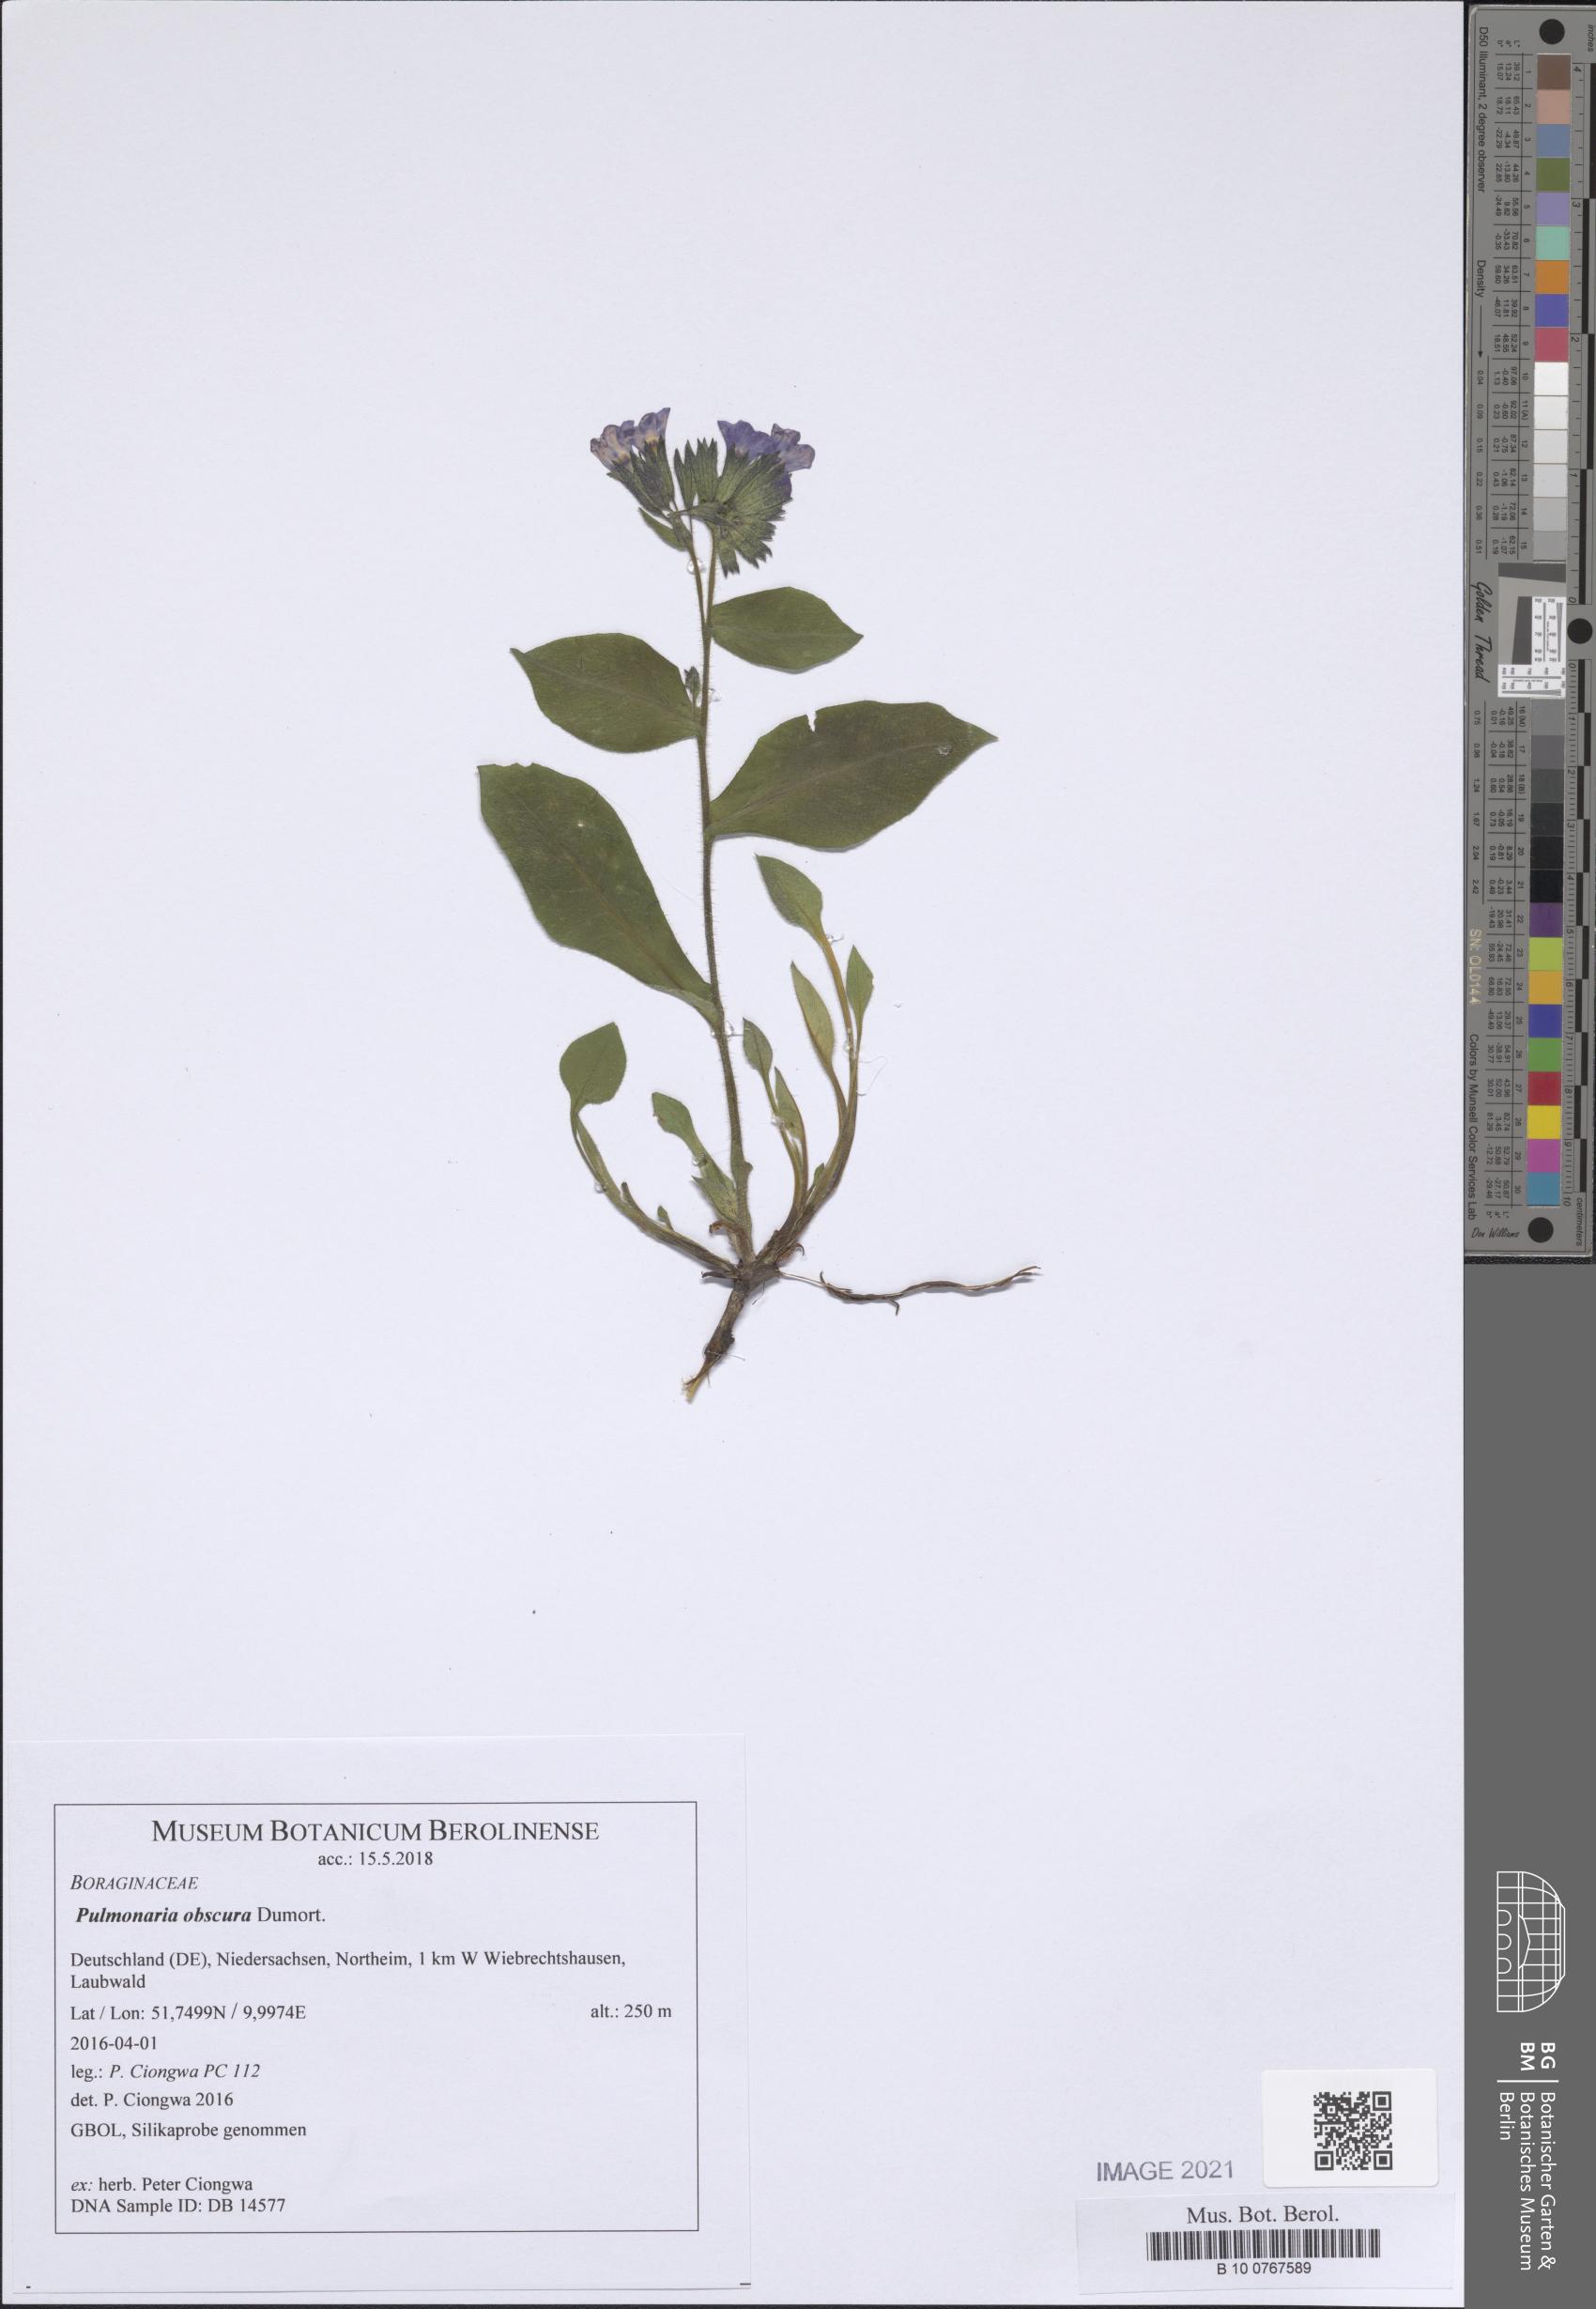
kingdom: Plantae
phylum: Tracheophyta
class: Magnoliopsida
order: Boraginales
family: Boraginaceae
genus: Pulmonaria
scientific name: Pulmonaria obscura
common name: Suffolk lungwort
